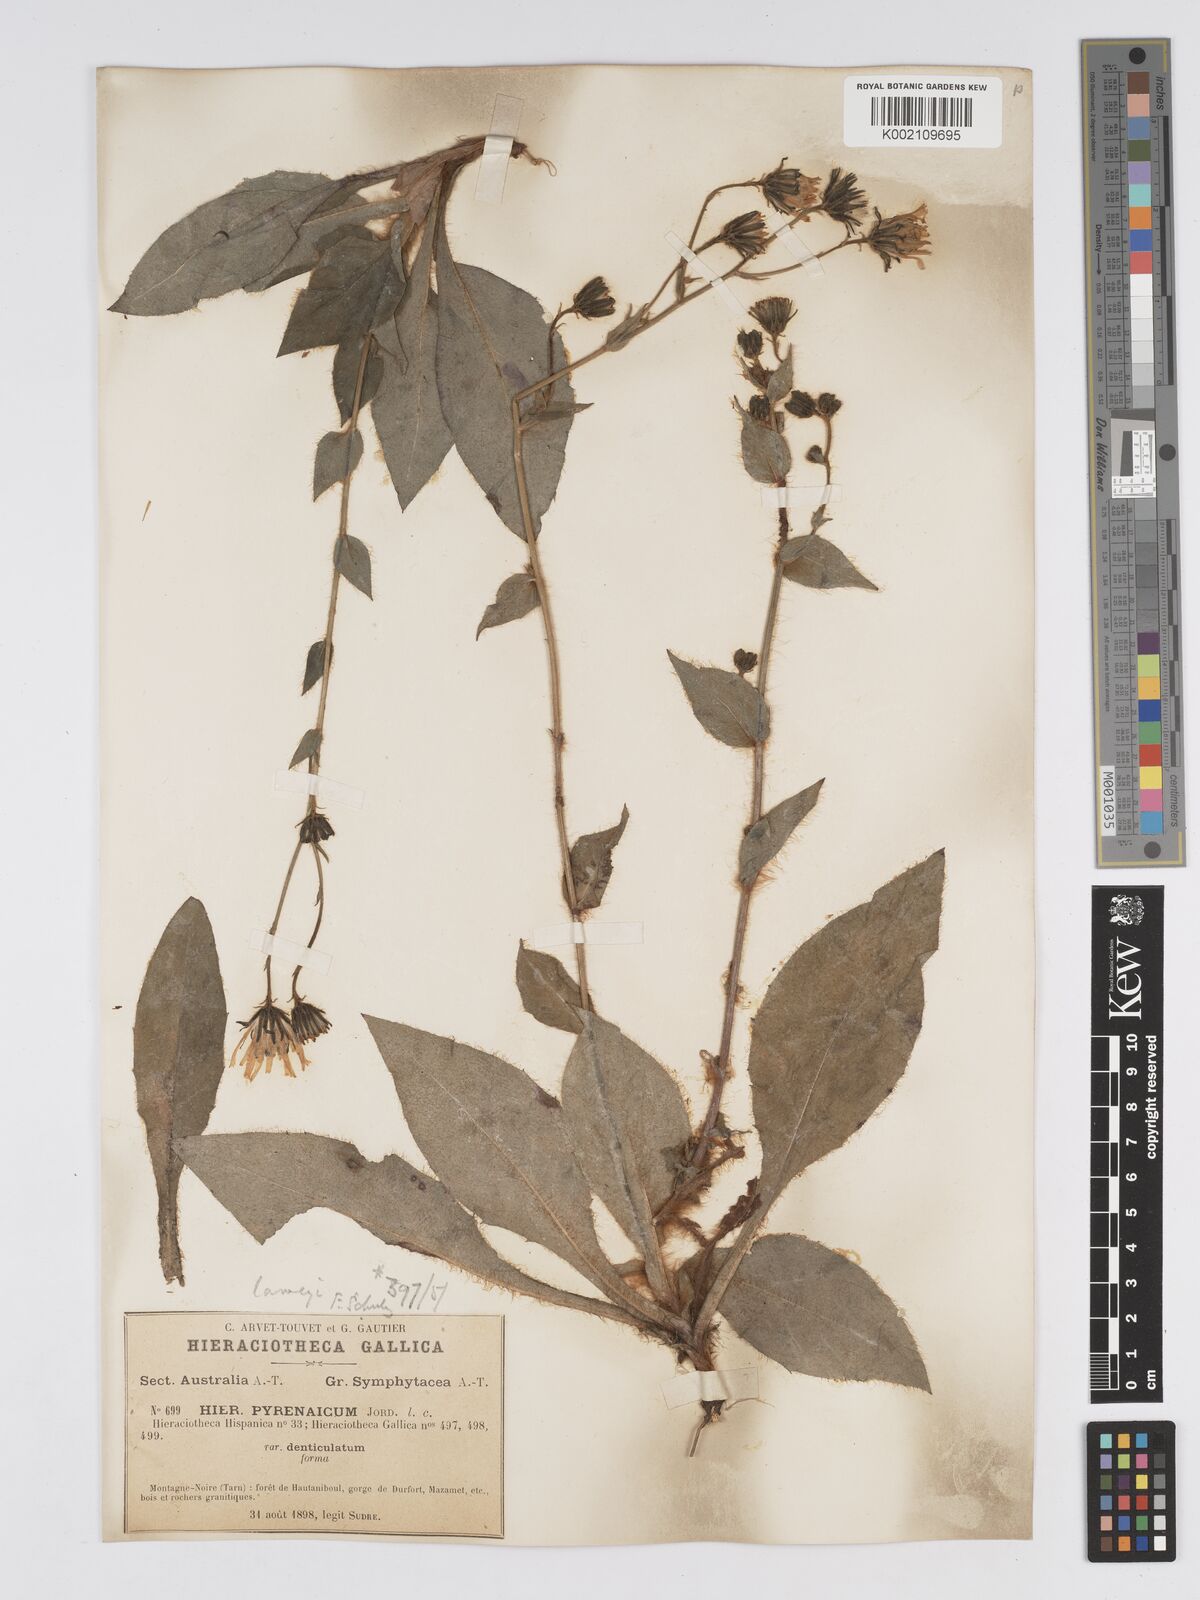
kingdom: Plantae
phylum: Tracheophyta
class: Magnoliopsida
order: Asterales
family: Asteraceae
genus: Hieracium
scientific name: Hieracium nobile
